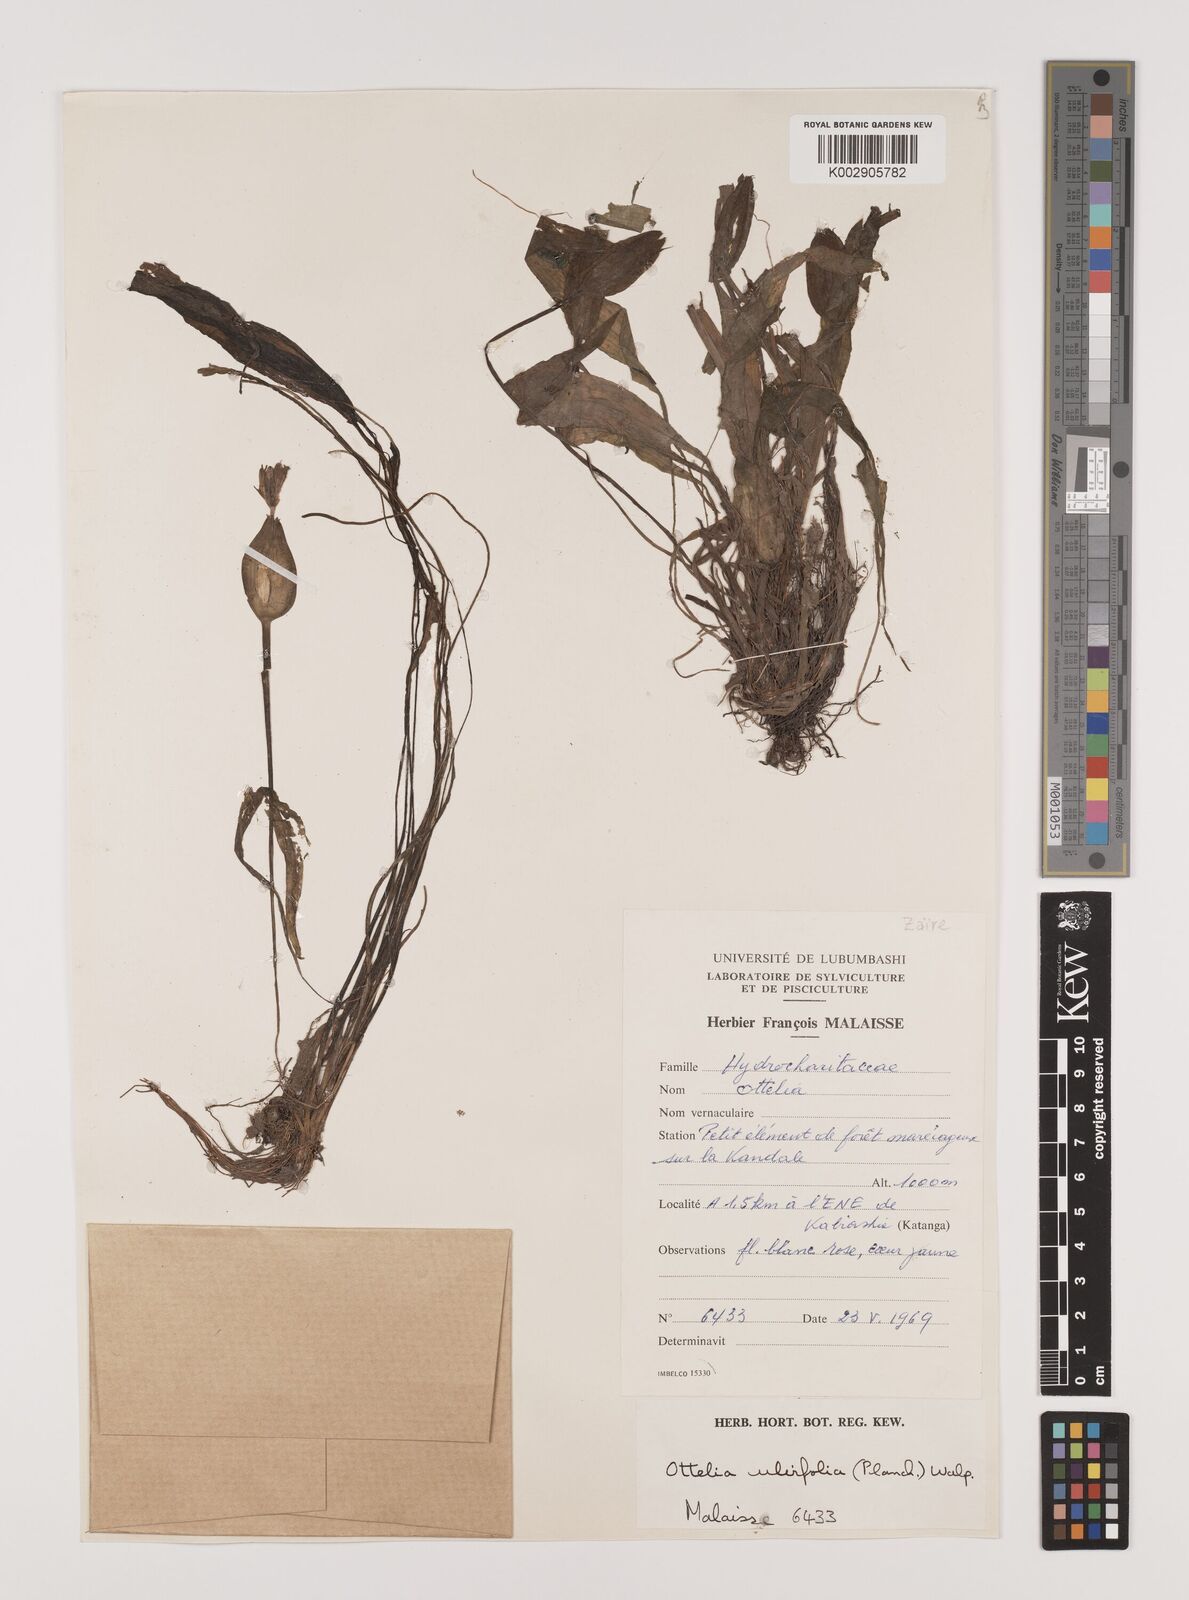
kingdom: Plantae
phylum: Tracheophyta
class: Liliopsida
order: Alismatales
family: Hydrocharitaceae
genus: Ottelia
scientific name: Ottelia ulvifolia
